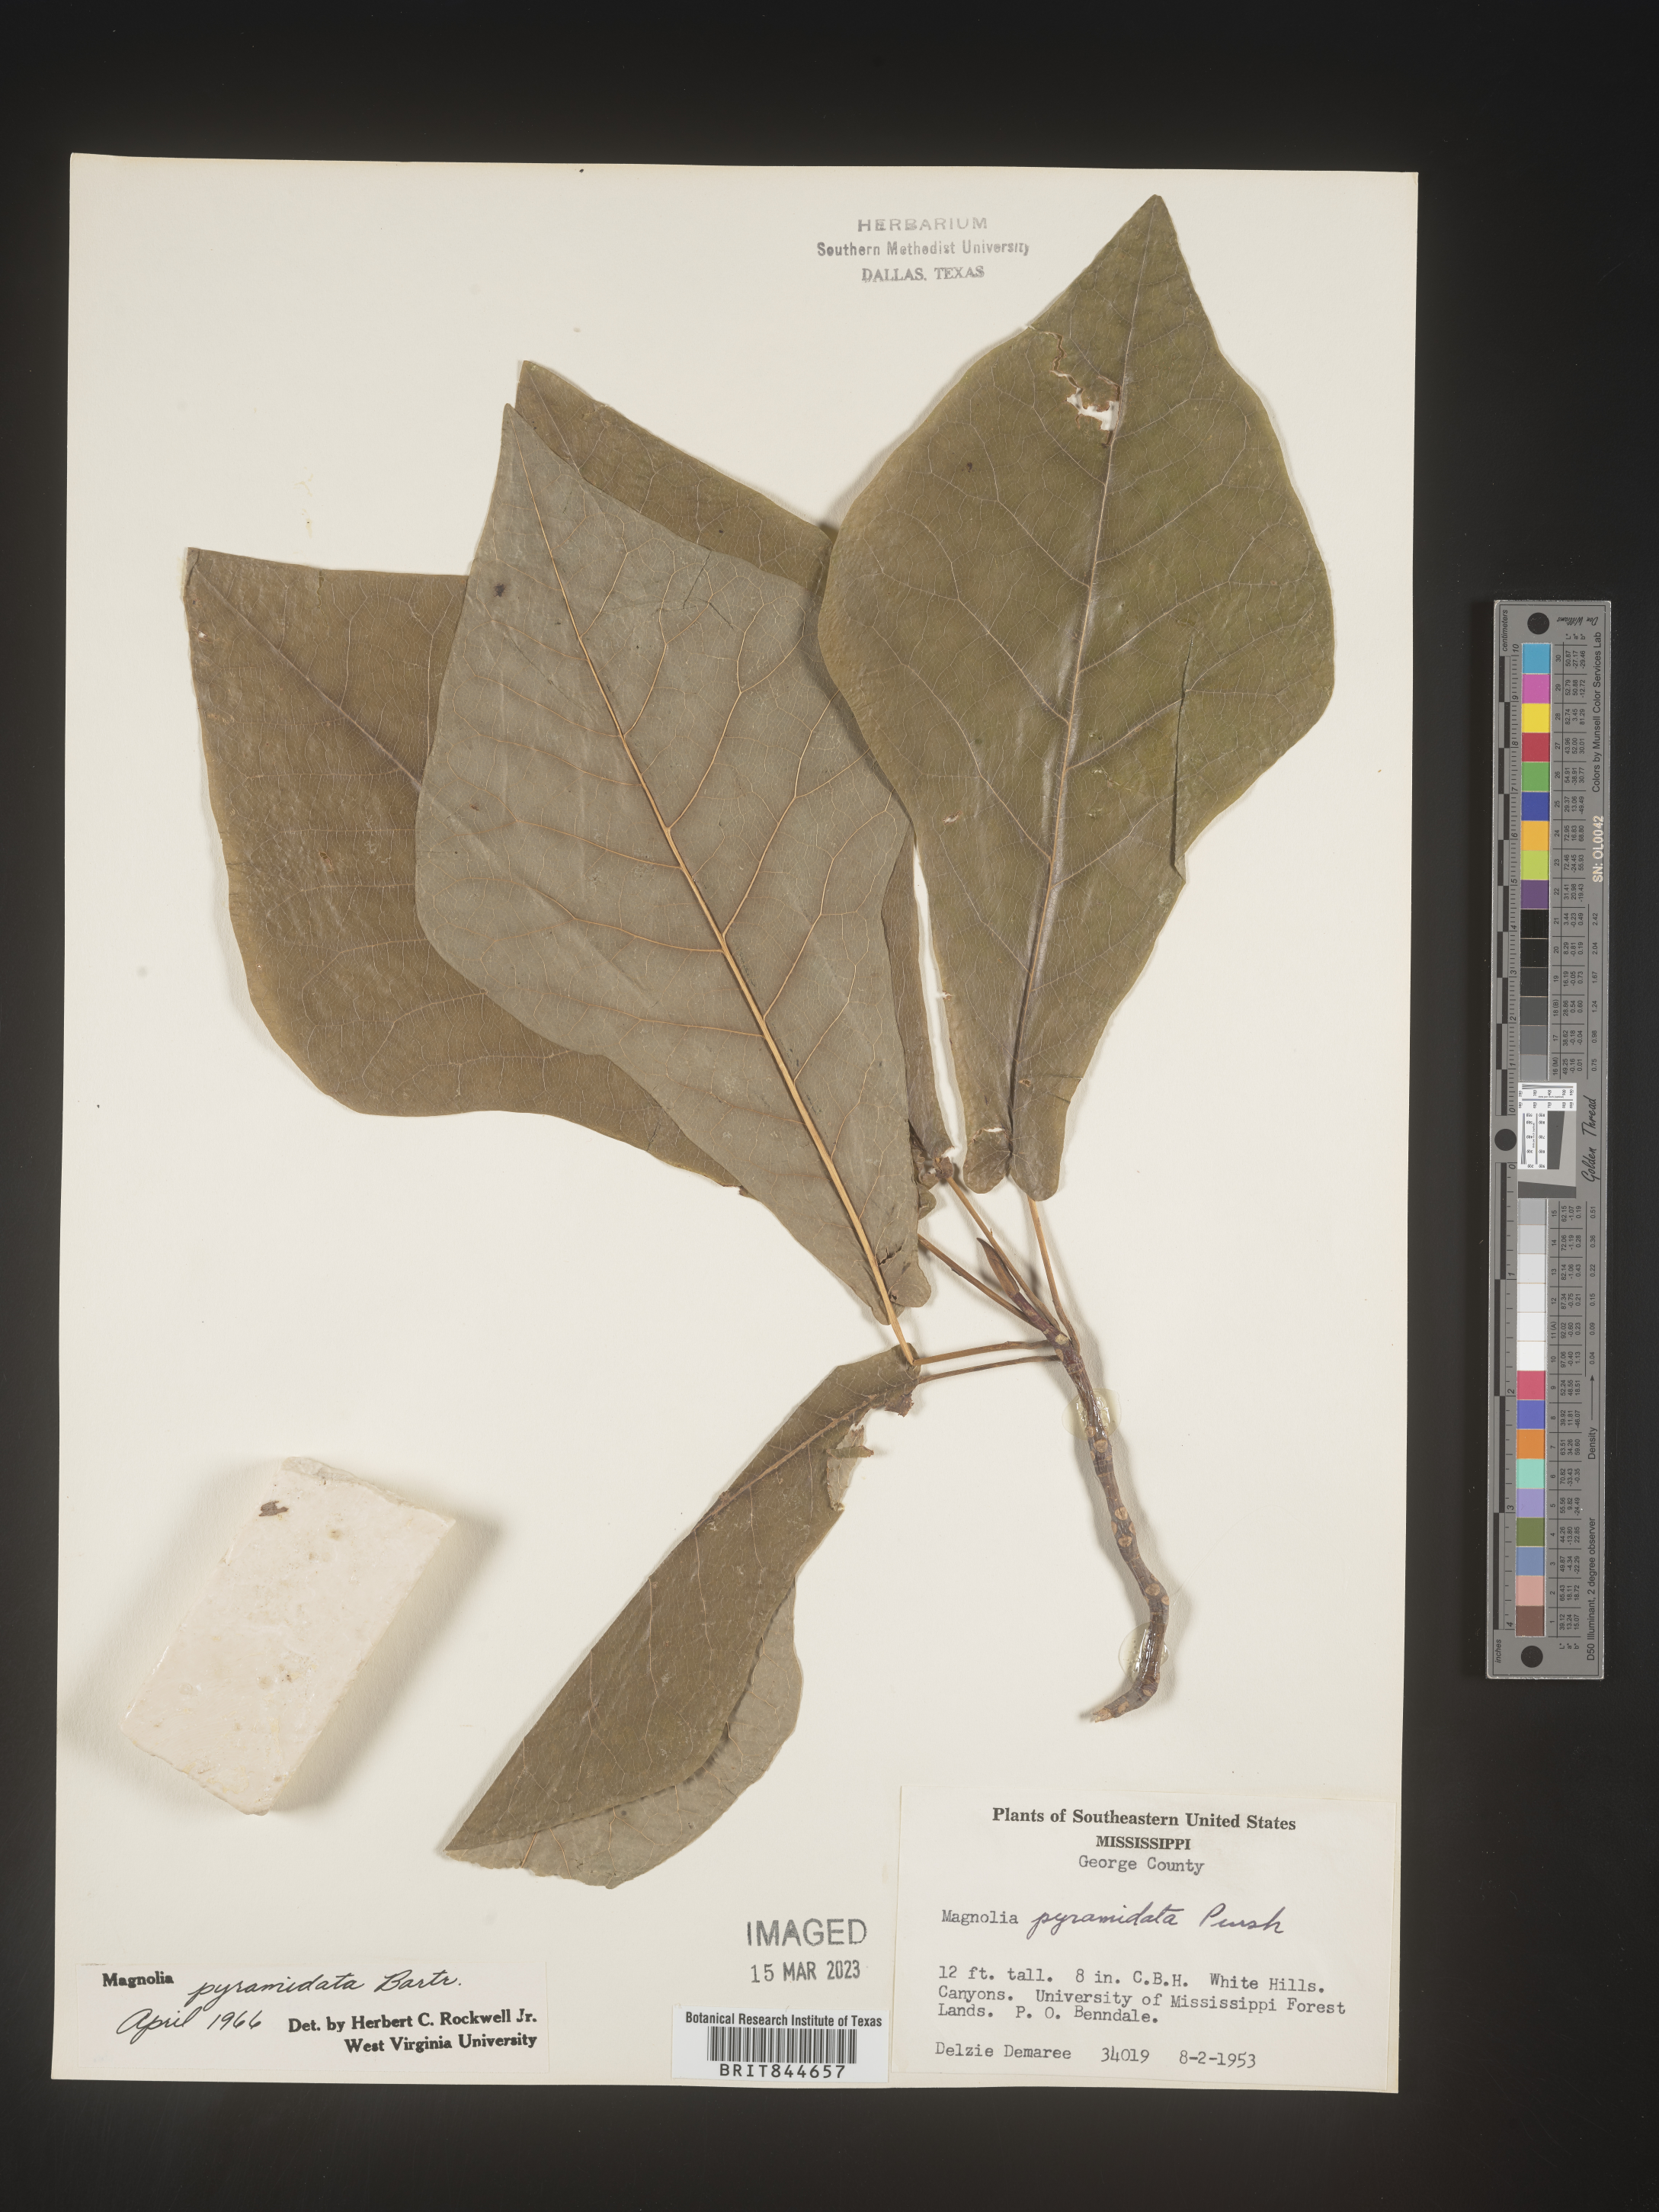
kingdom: Plantae
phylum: Tracheophyta
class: Magnoliopsida
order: Magnoliales
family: Magnoliaceae
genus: Magnolia
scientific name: Magnolia fraseri
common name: Fraser's magnolia
